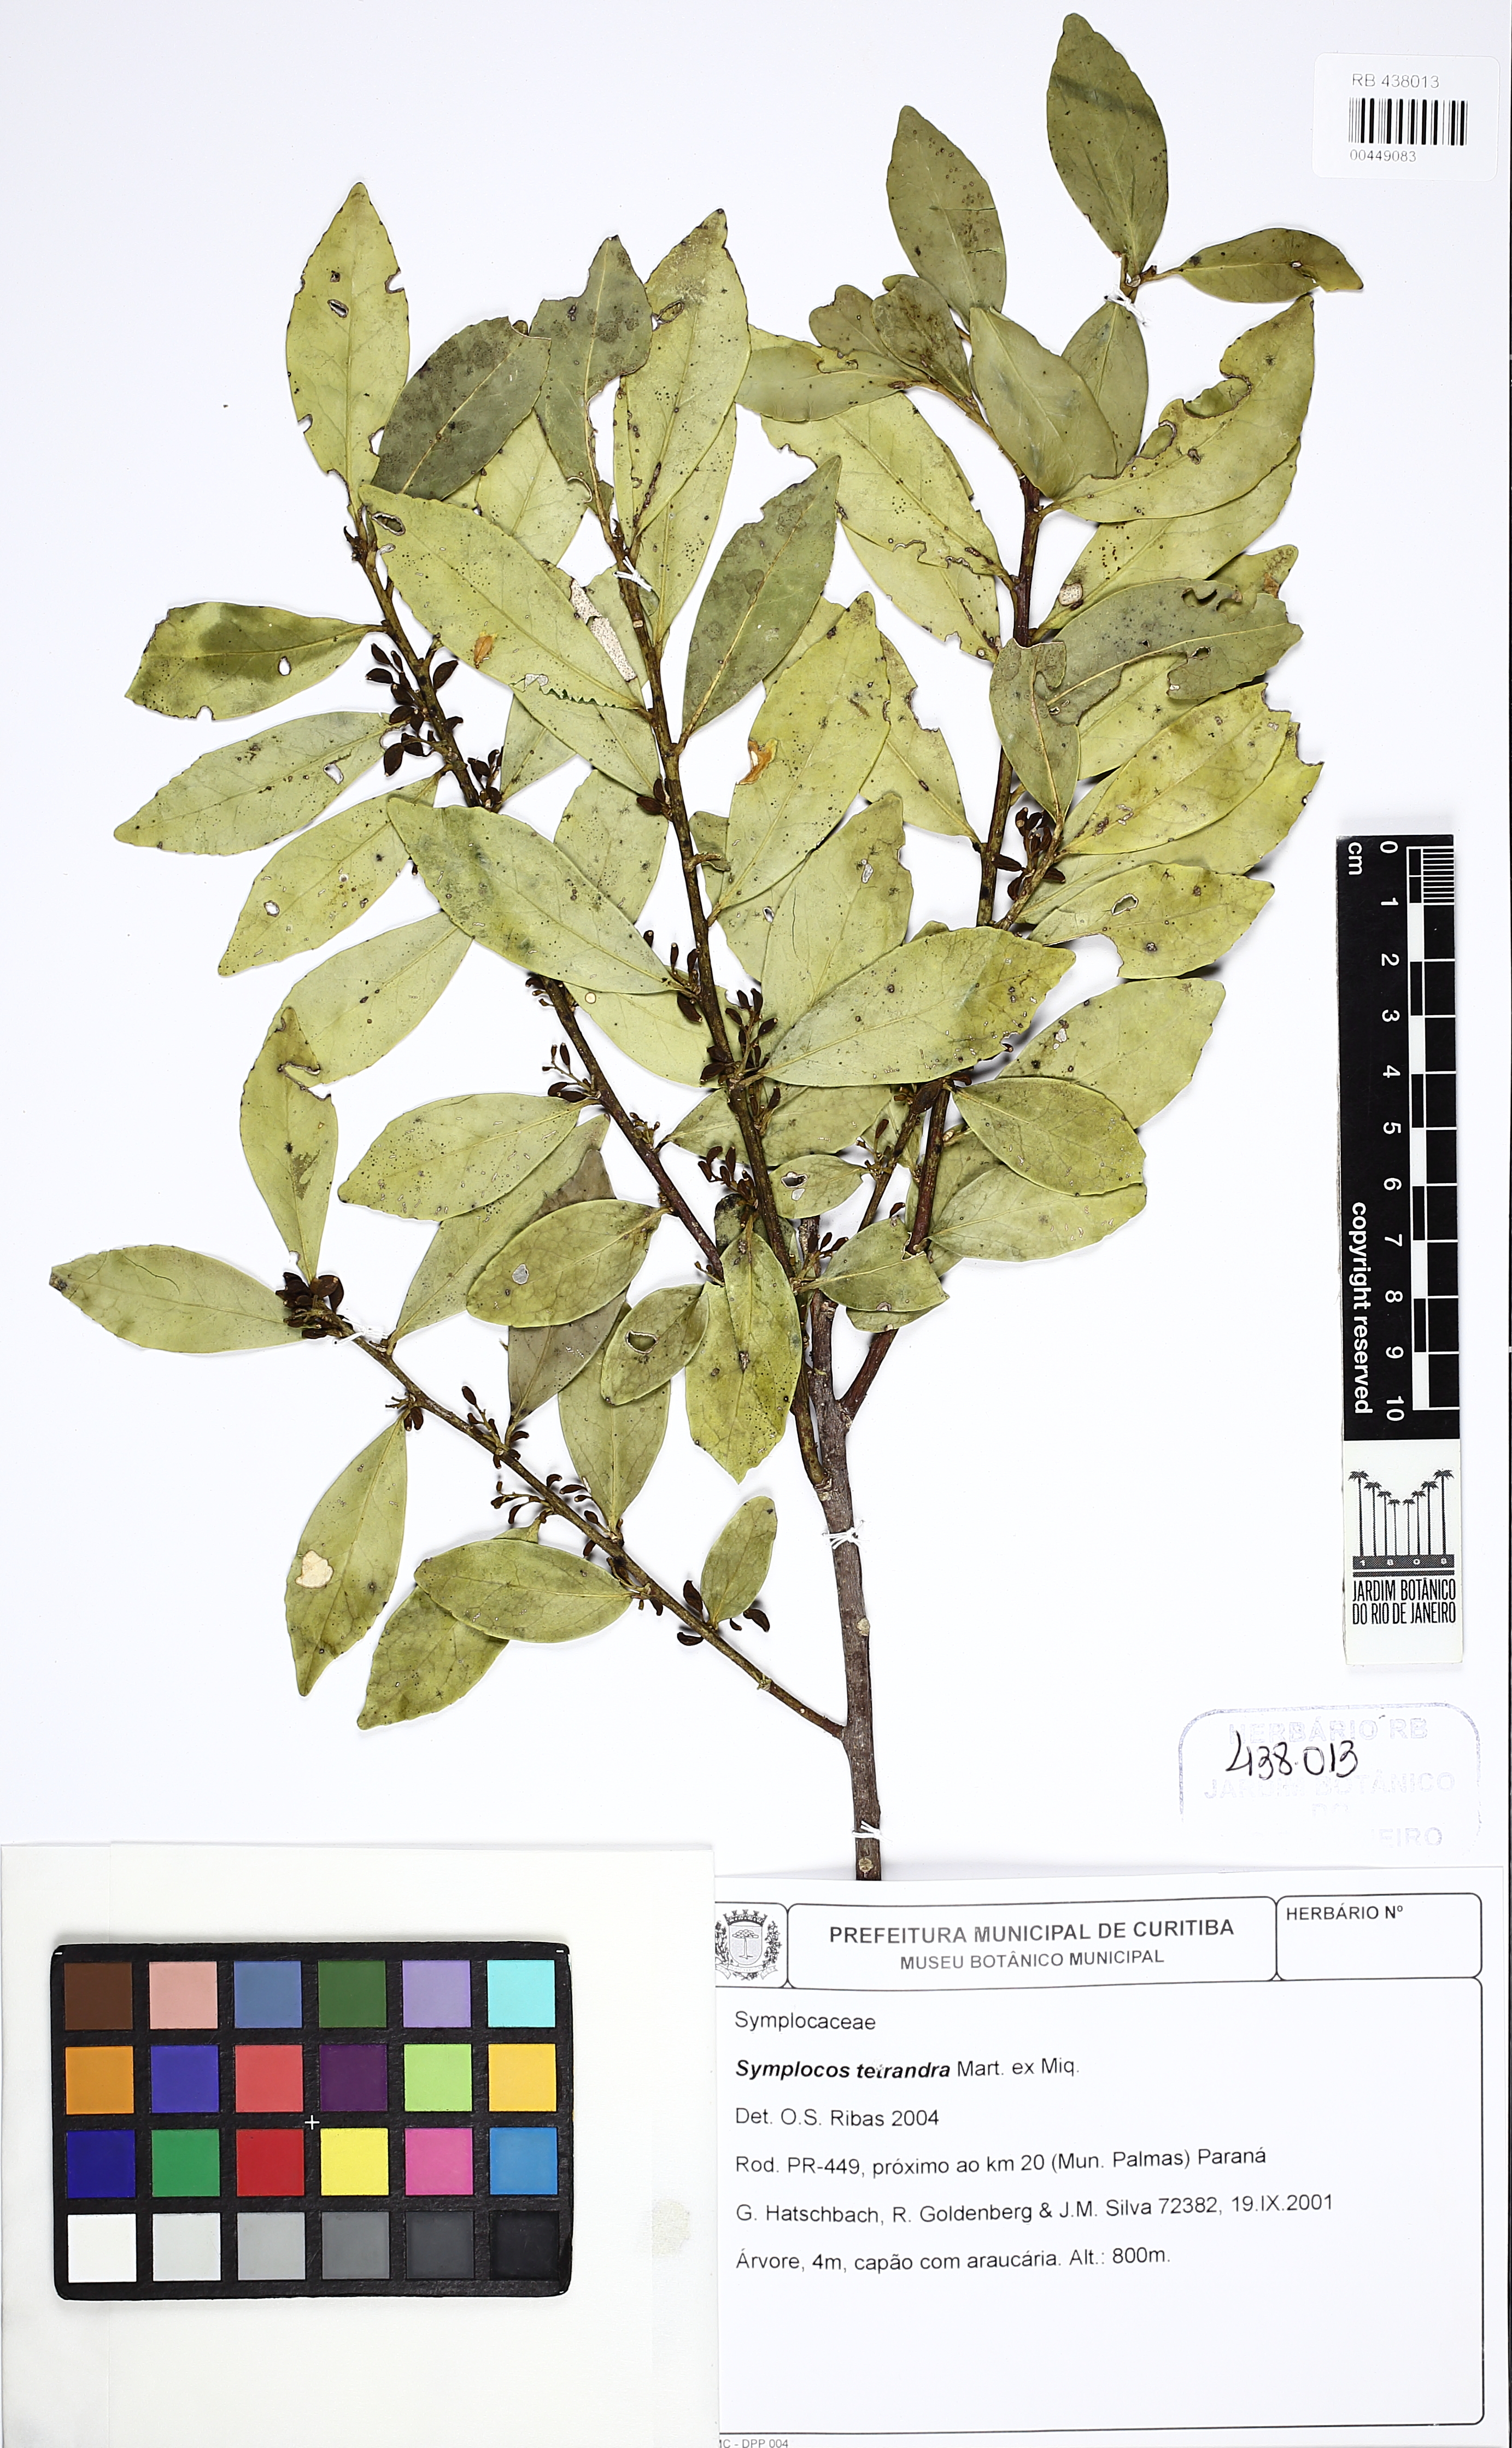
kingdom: Plantae
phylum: Tracheophyta
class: Magnoliopsida
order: Ericales
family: Symplocaceae
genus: Symplocos
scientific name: Symplocos tetrandra
